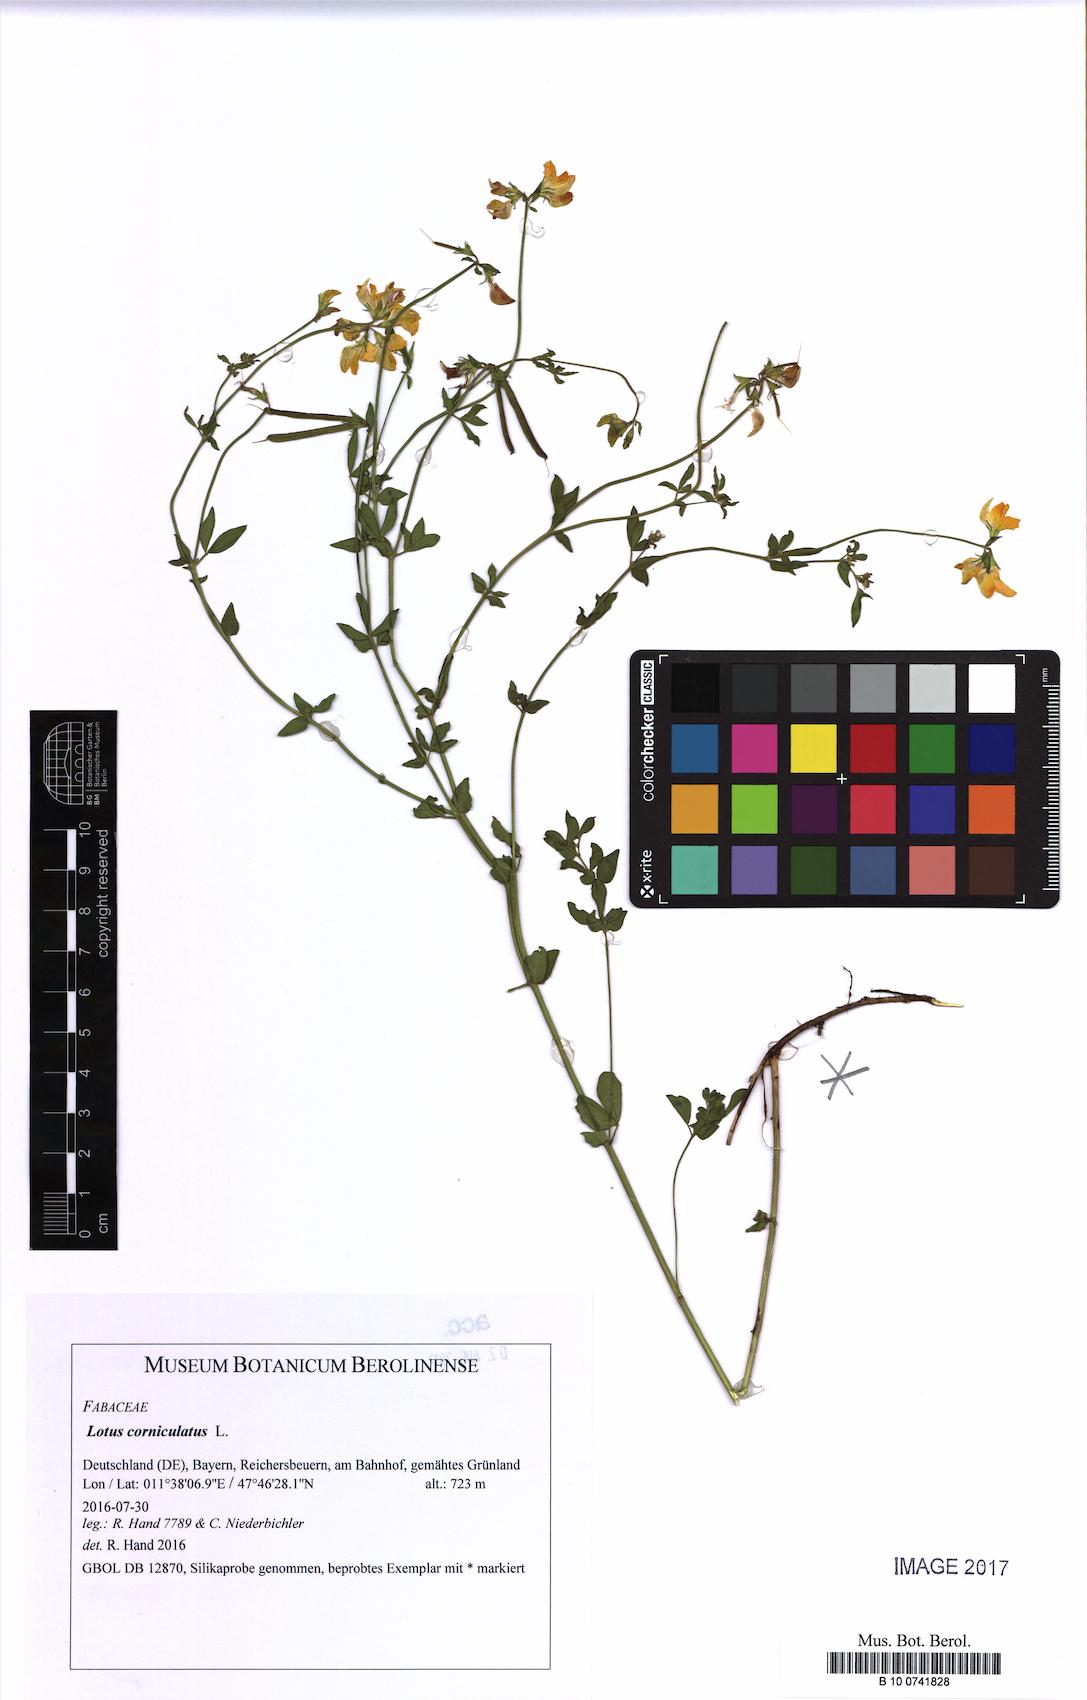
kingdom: Plantae
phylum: Tracheophyta
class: Magnoliopsida
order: Fabales
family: Fabaceae
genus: Lotus
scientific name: Lotus corniculatus
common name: Common bird's-foot-trefoil
